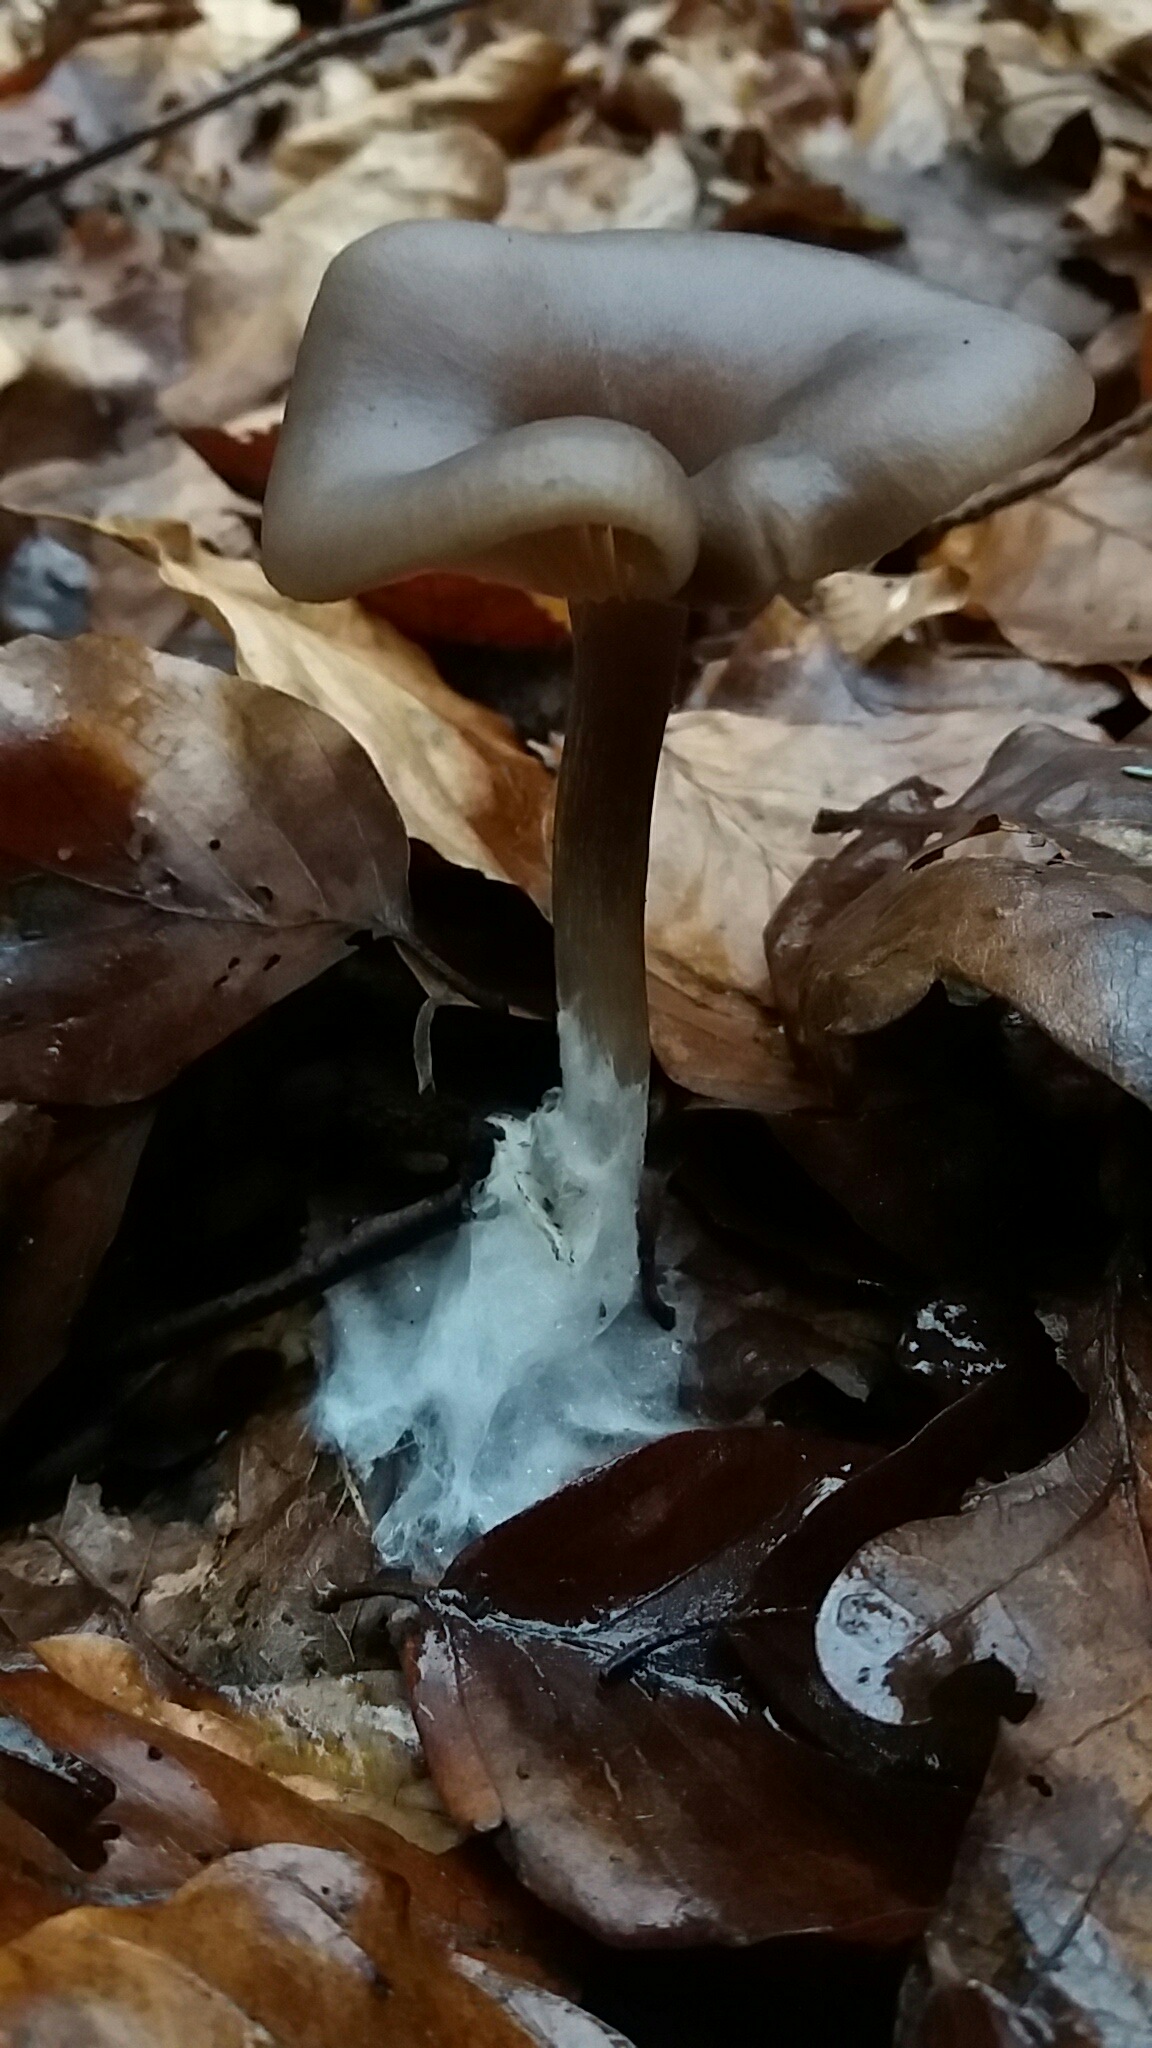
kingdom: Fungi
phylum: Basidiomycota
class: Agaricomycetes
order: Agaricales
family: Pseudoclitocybaceae
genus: Pseudoclitocybe
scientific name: Pseudoclitocybe cyathiformis
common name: almindelig bægertragthat
